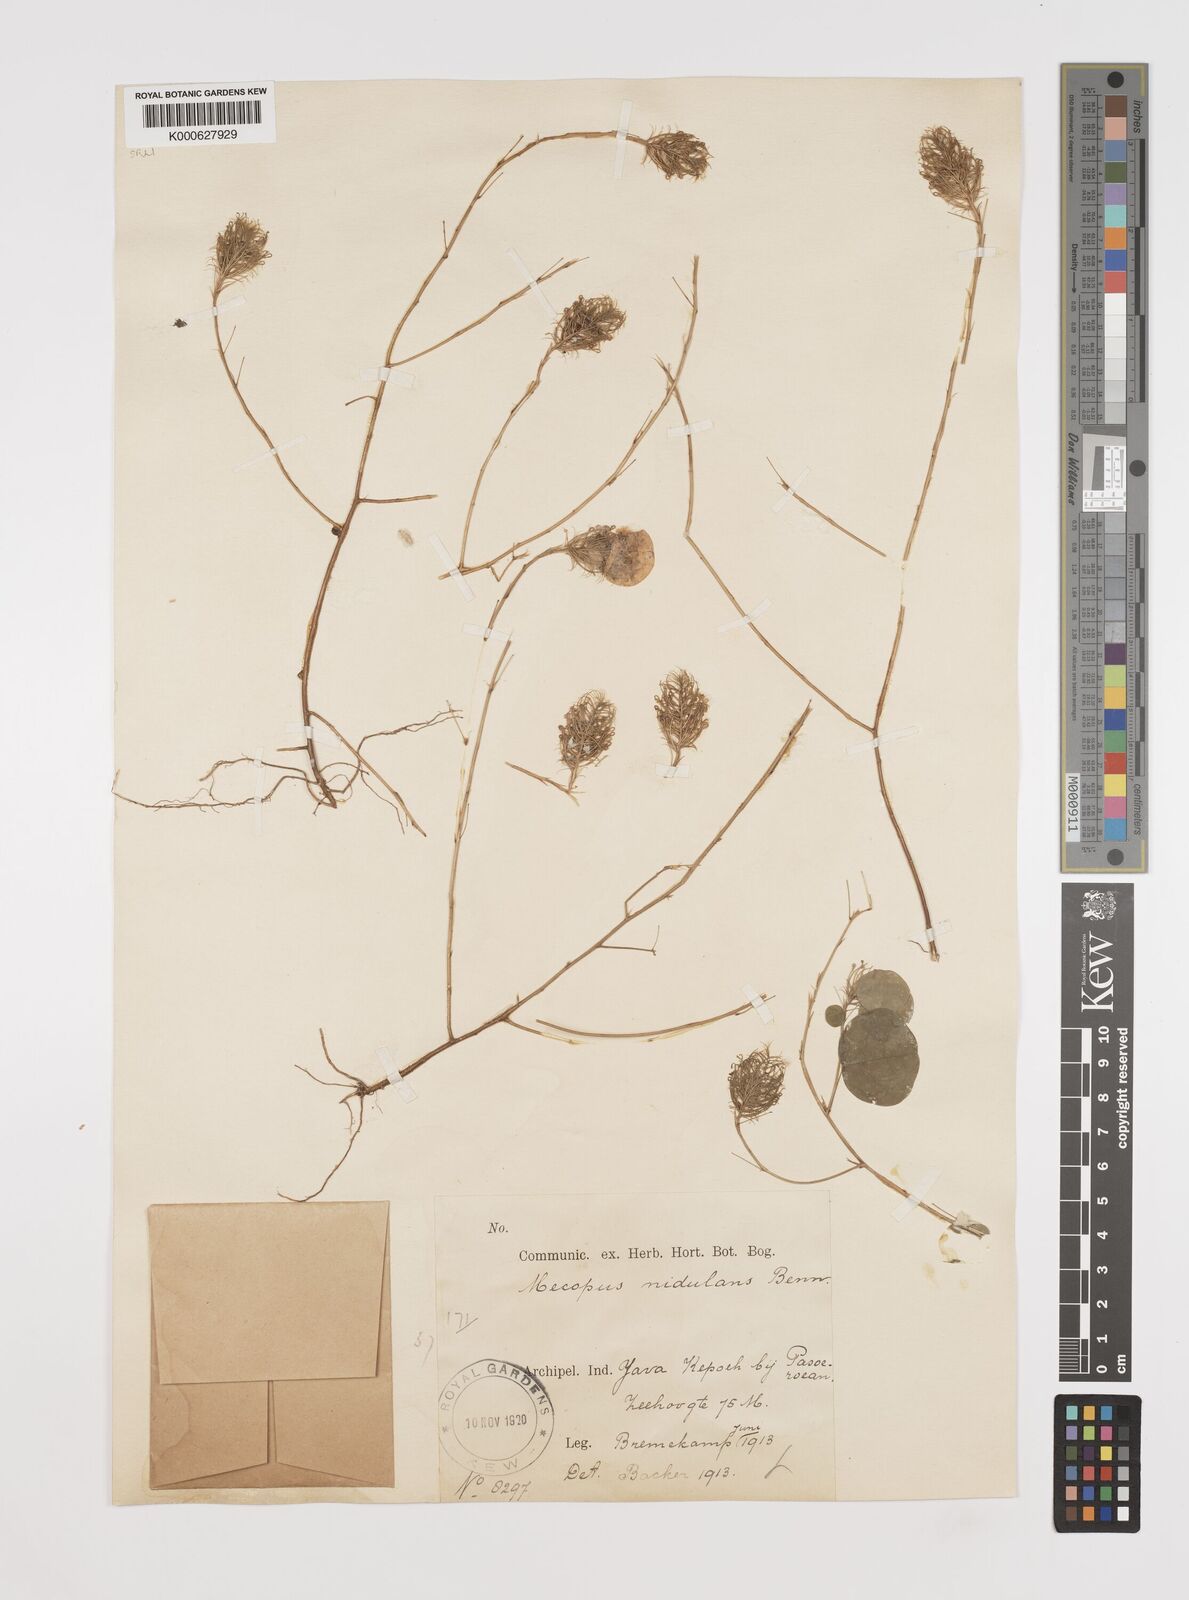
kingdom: Plantae
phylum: Tracheophyta
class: Magnoliopsida
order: Fabales
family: Fabaceae
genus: Mecopus
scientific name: Mecopus nidulans
